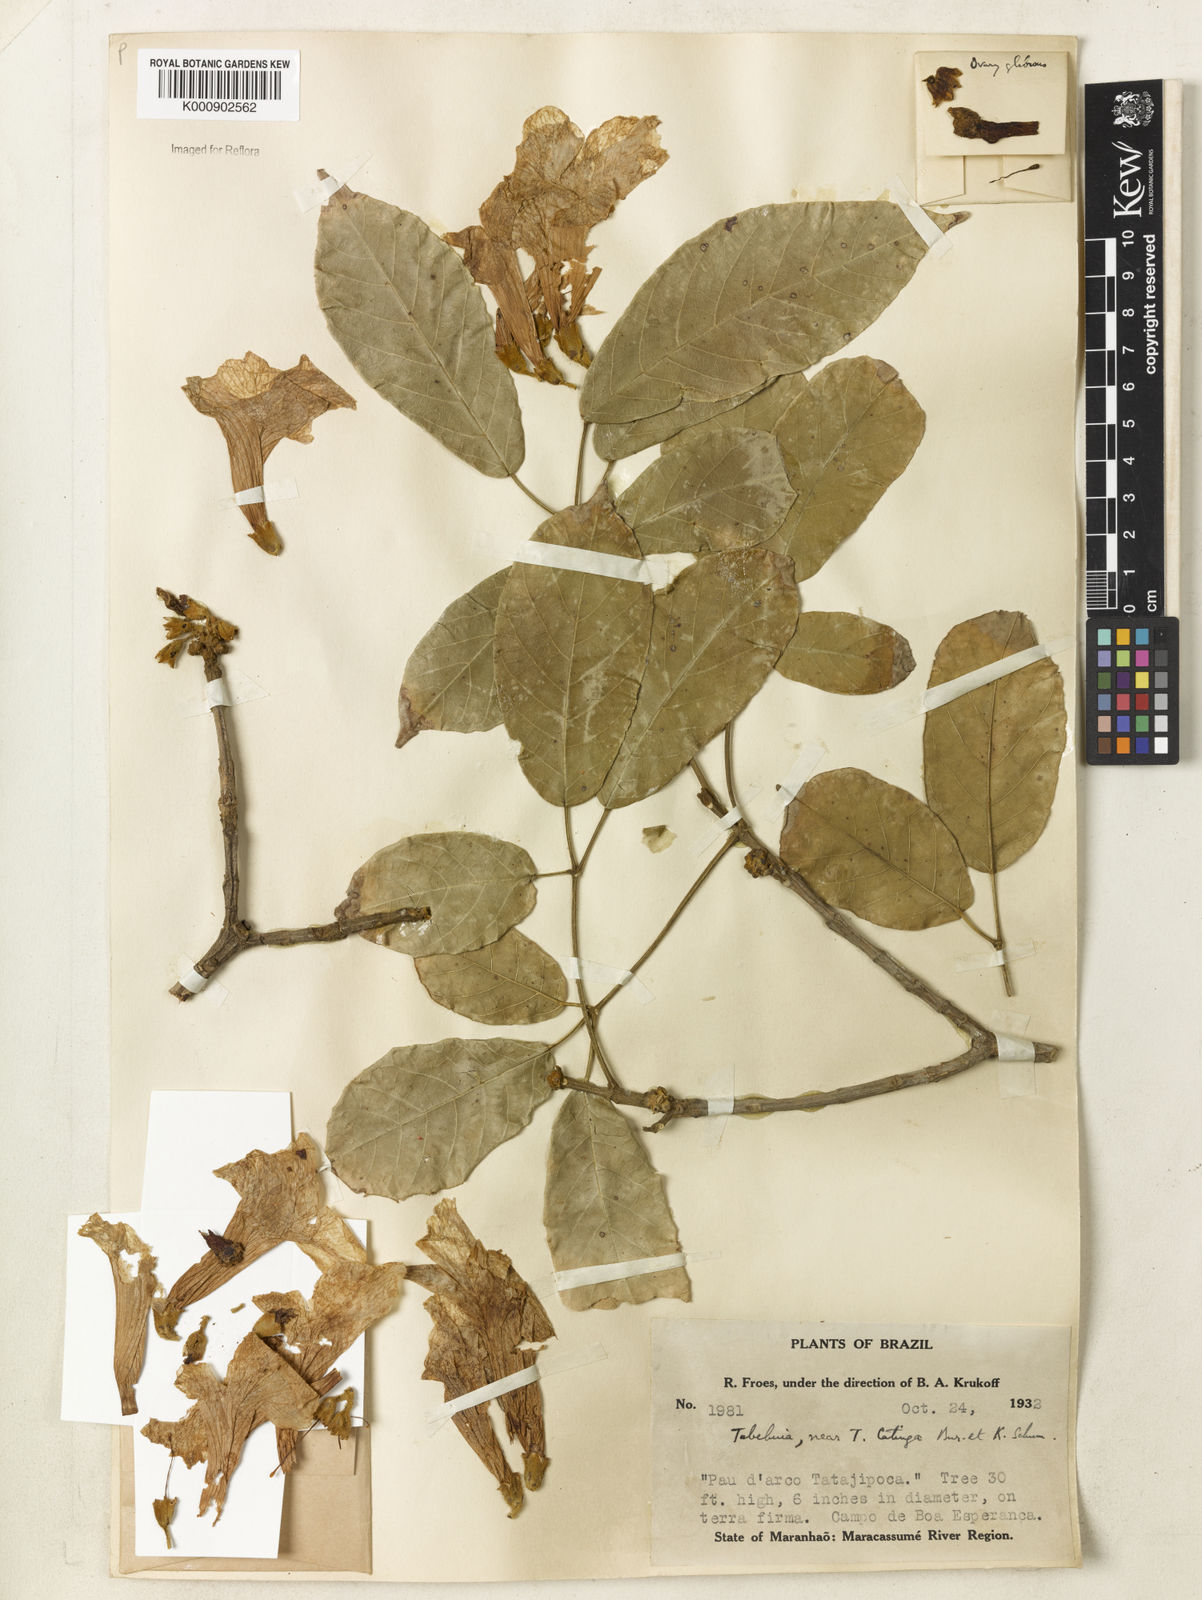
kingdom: Plantae
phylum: Tracheophyta
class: Magnoliopsida
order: Lamiales
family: Bignoniaceae
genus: Tabebuia
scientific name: Tabebuia
